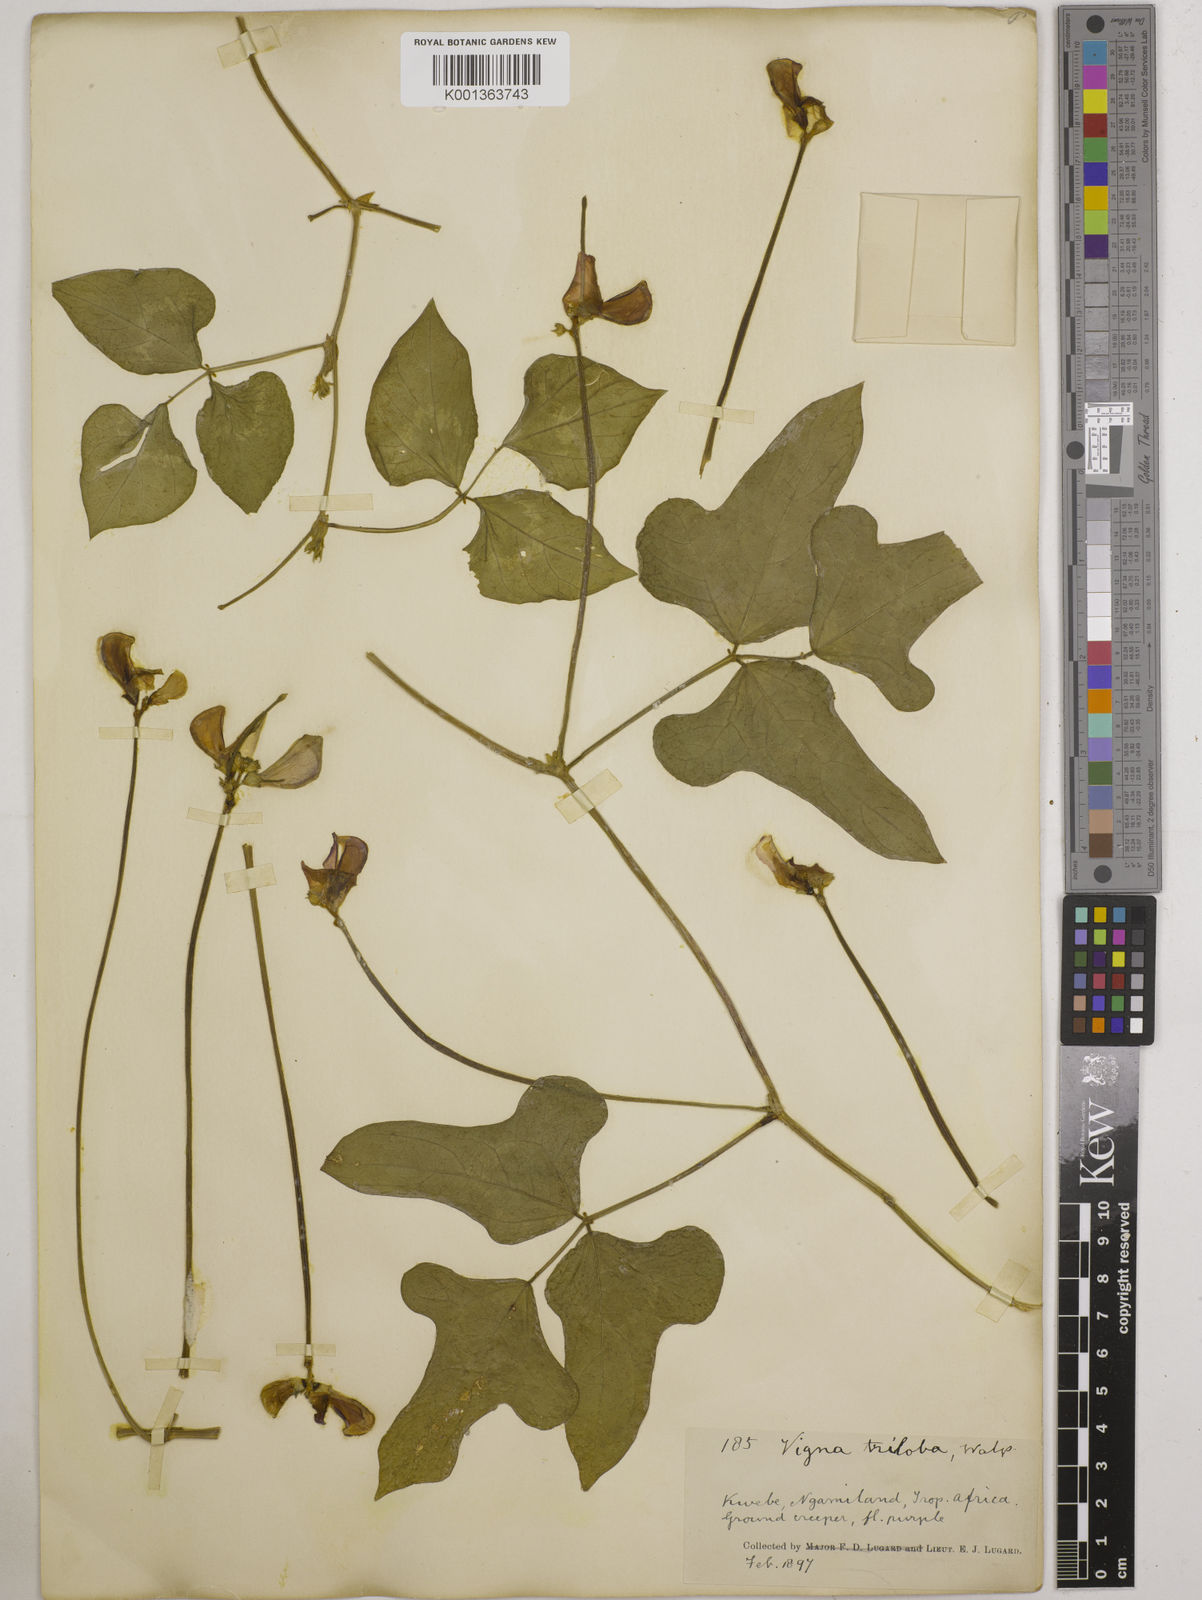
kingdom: Plantae
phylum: Tracheophyta
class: Magnoliopsida
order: Fabales
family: Fabaceae
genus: Vigna
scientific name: Vigna unguiculata
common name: Cowpea
